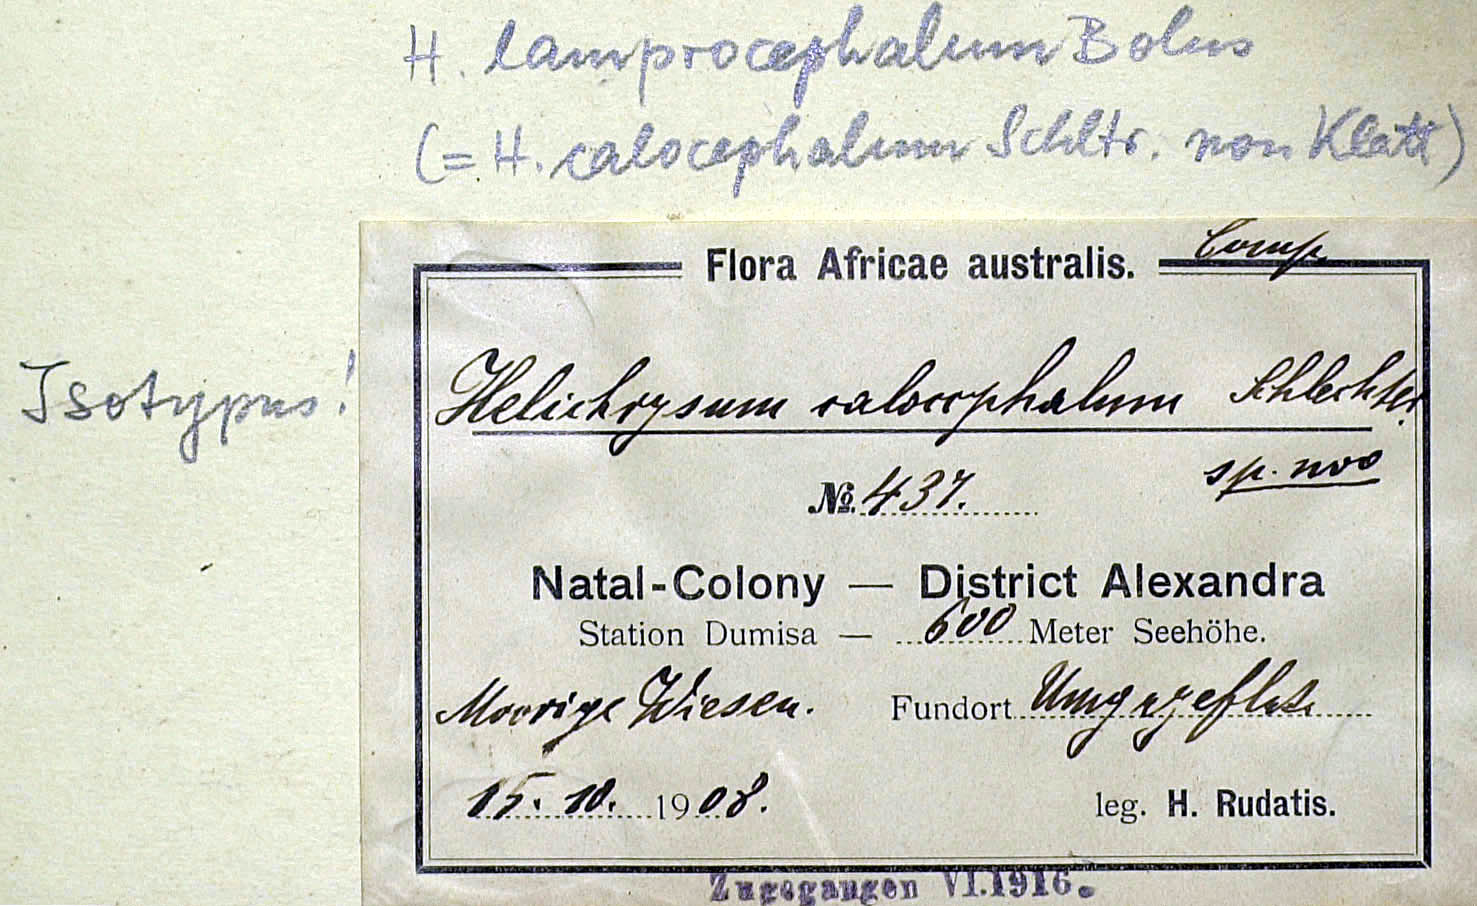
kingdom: Plantae
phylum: Tracheophyta
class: Magnoliopsida
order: Asterales
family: Asteraceae
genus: Helichrysum
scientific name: Helichrysum ecklonis
